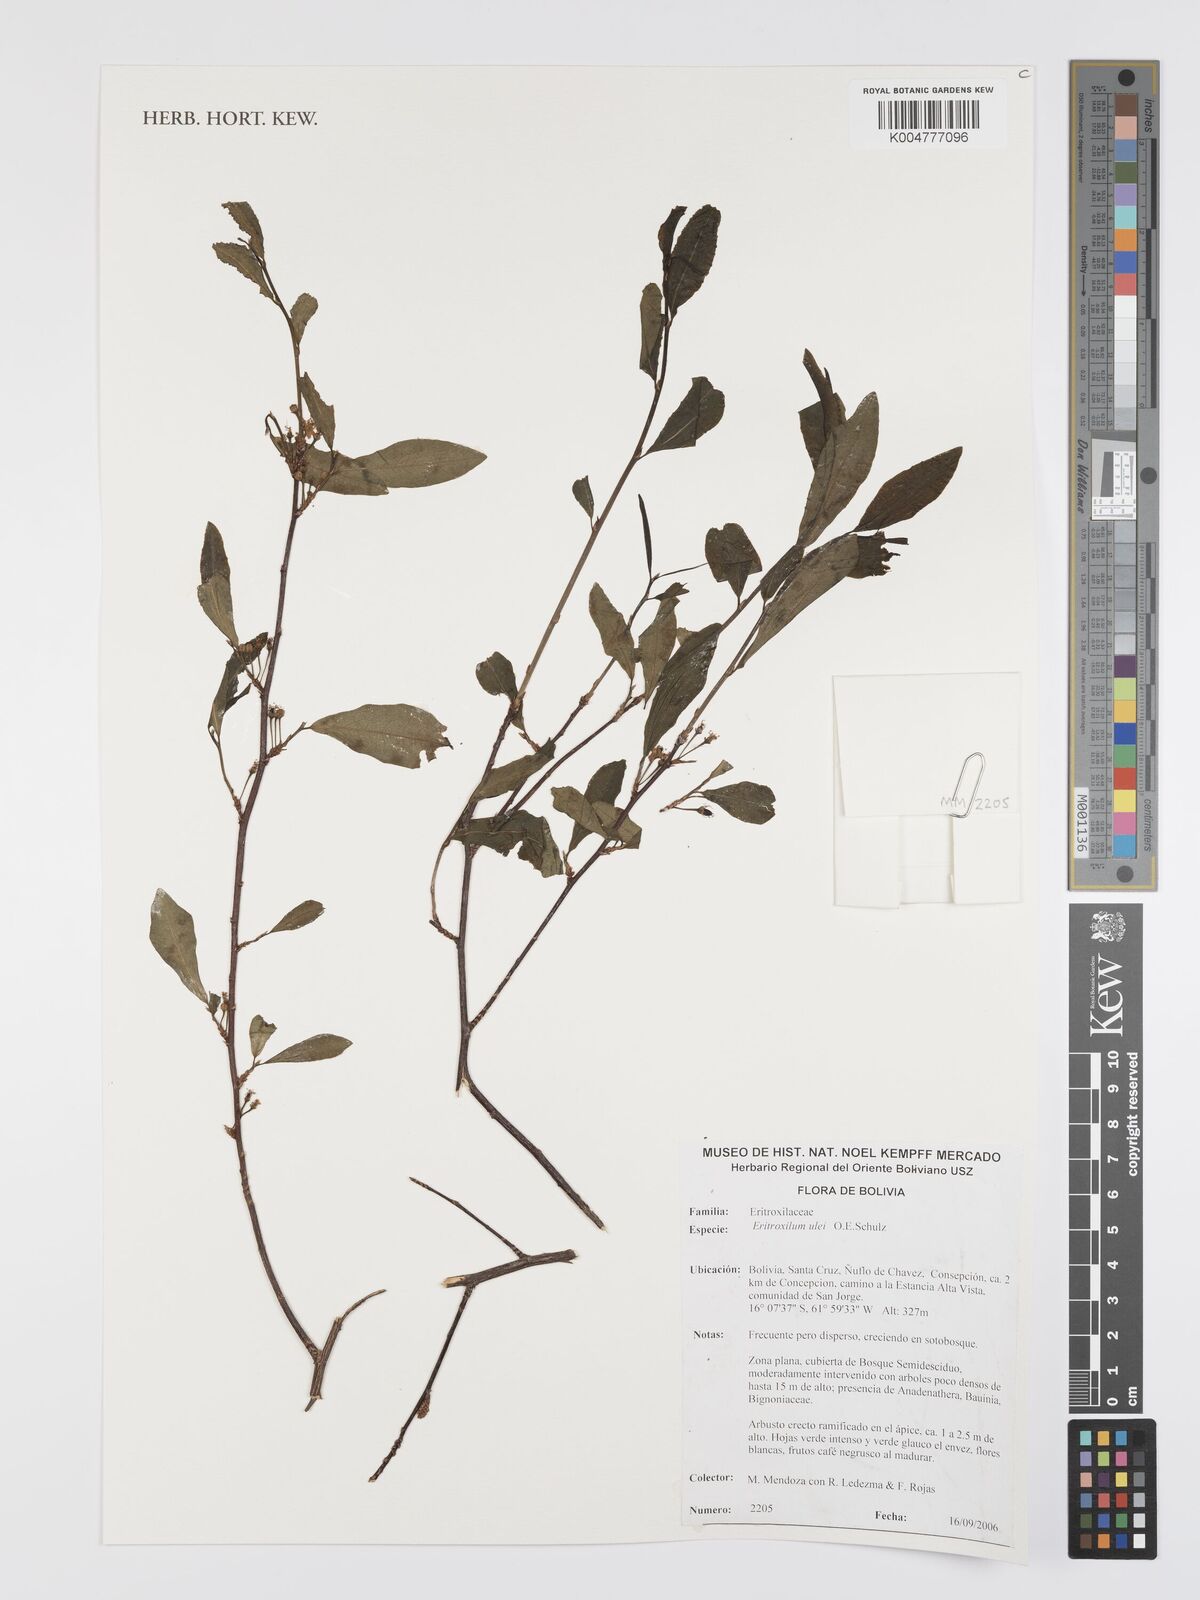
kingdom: Plantae
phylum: Tracheophyta
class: Magnoliopsida
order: Malpighiales
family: Erythroxylaceae
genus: Erythroxylum
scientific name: Erythroxylum ulei
